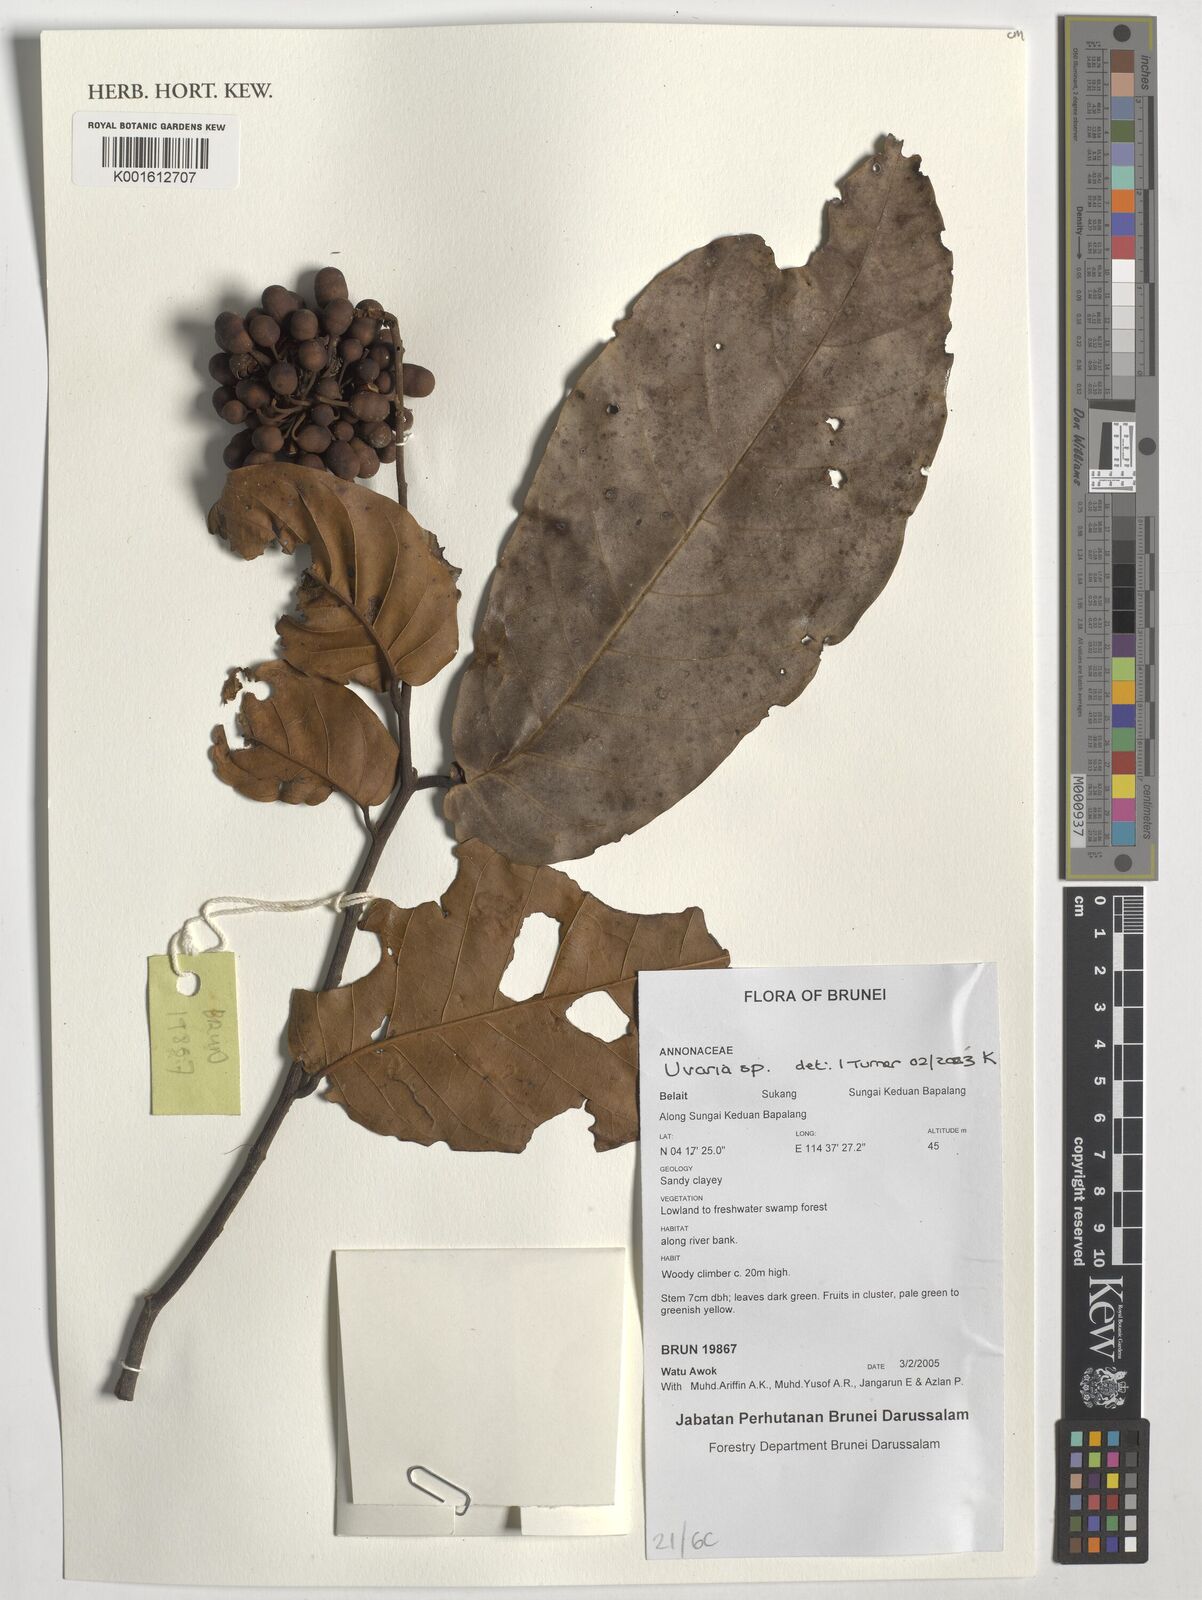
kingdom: Plantae
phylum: Tracheophyta
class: Magnoliopsida
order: Magnoliales
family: Annonaceae
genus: Uvaria
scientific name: Uvaria
